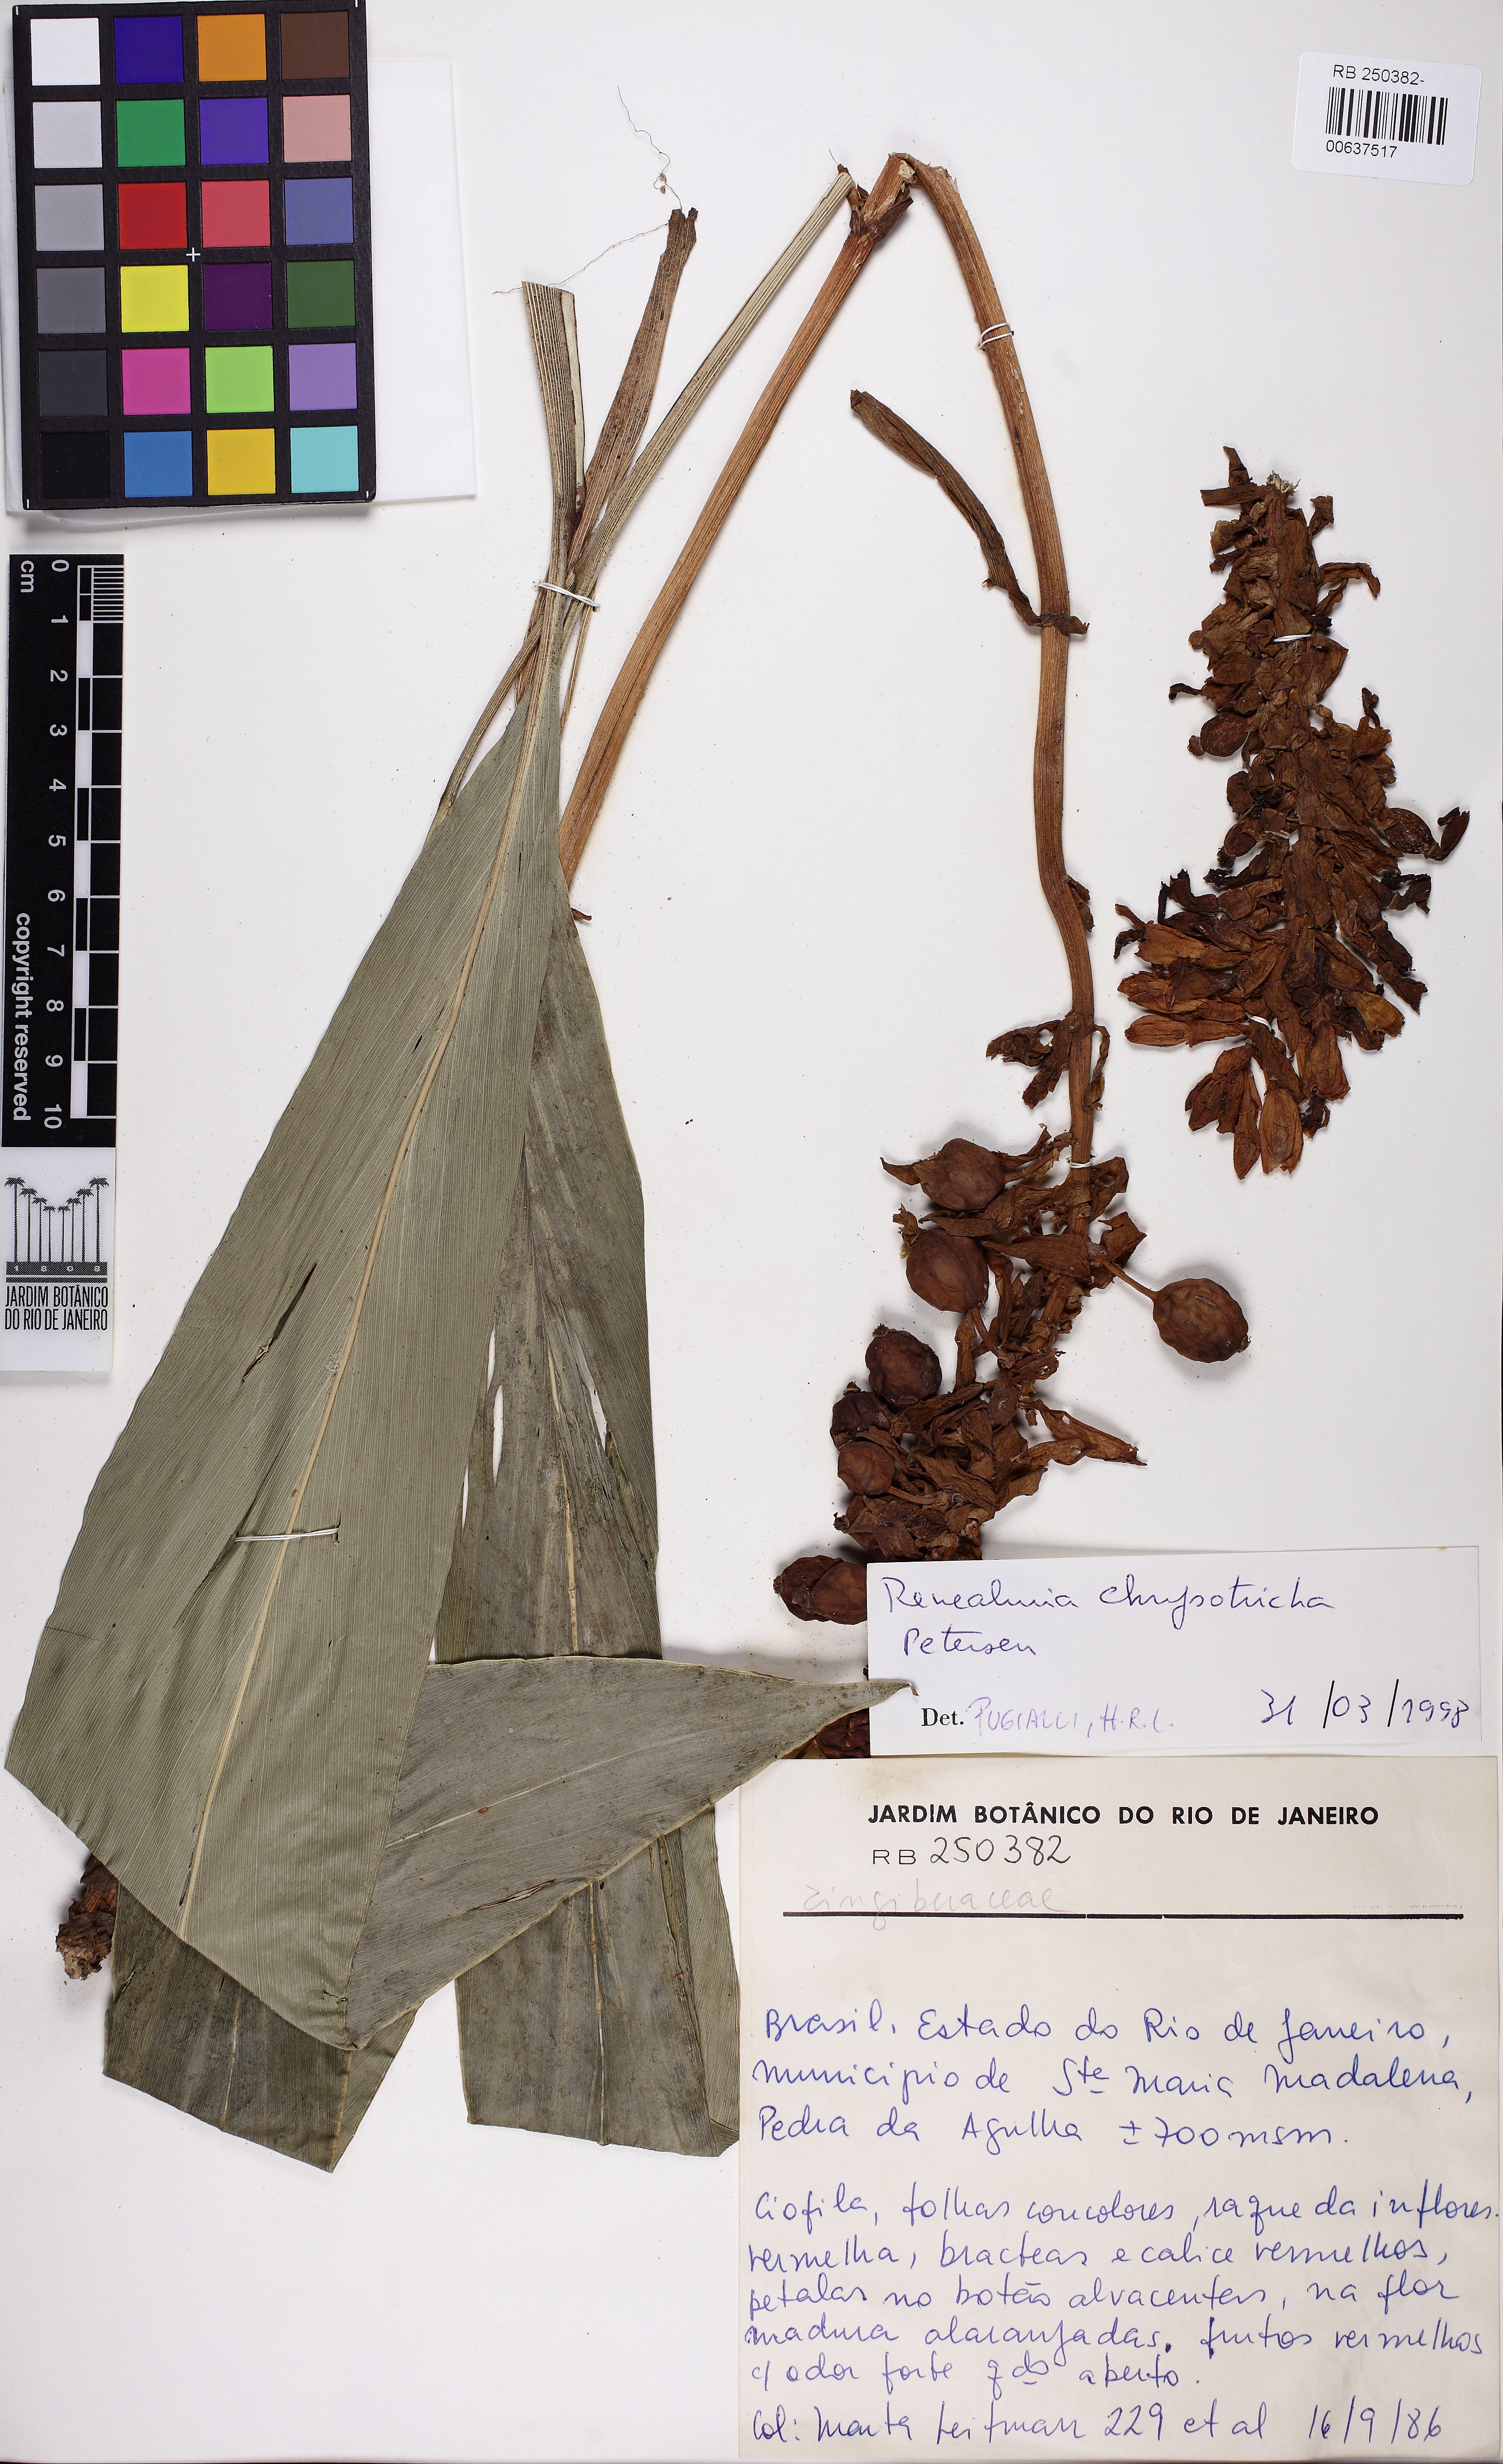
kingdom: Plantae
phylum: Tracheophyta
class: Liliopsida
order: Zingiberales
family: Zingiberaceae
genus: Renealmia
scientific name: Renealmia chrysotricha
